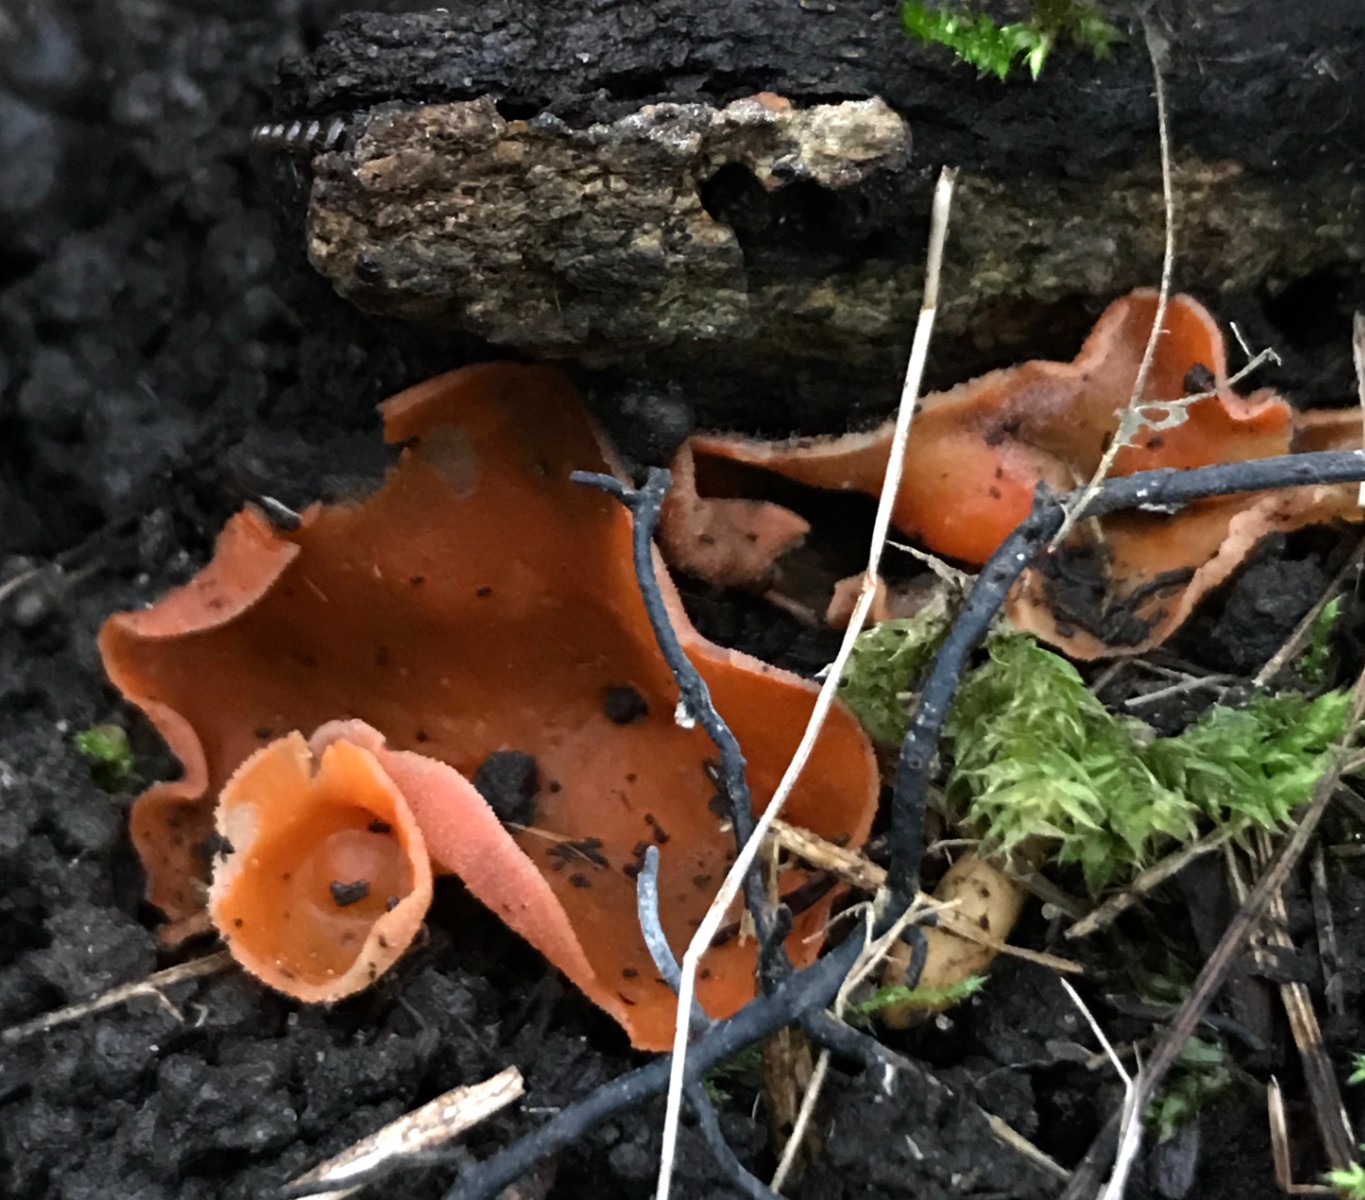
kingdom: Fungi
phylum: Ascomycota
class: Pezizomycetes
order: Pezizales
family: Pyronemataceae
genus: Aleuria
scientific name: Aleuria aurantia
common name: almindelig orangebæger
